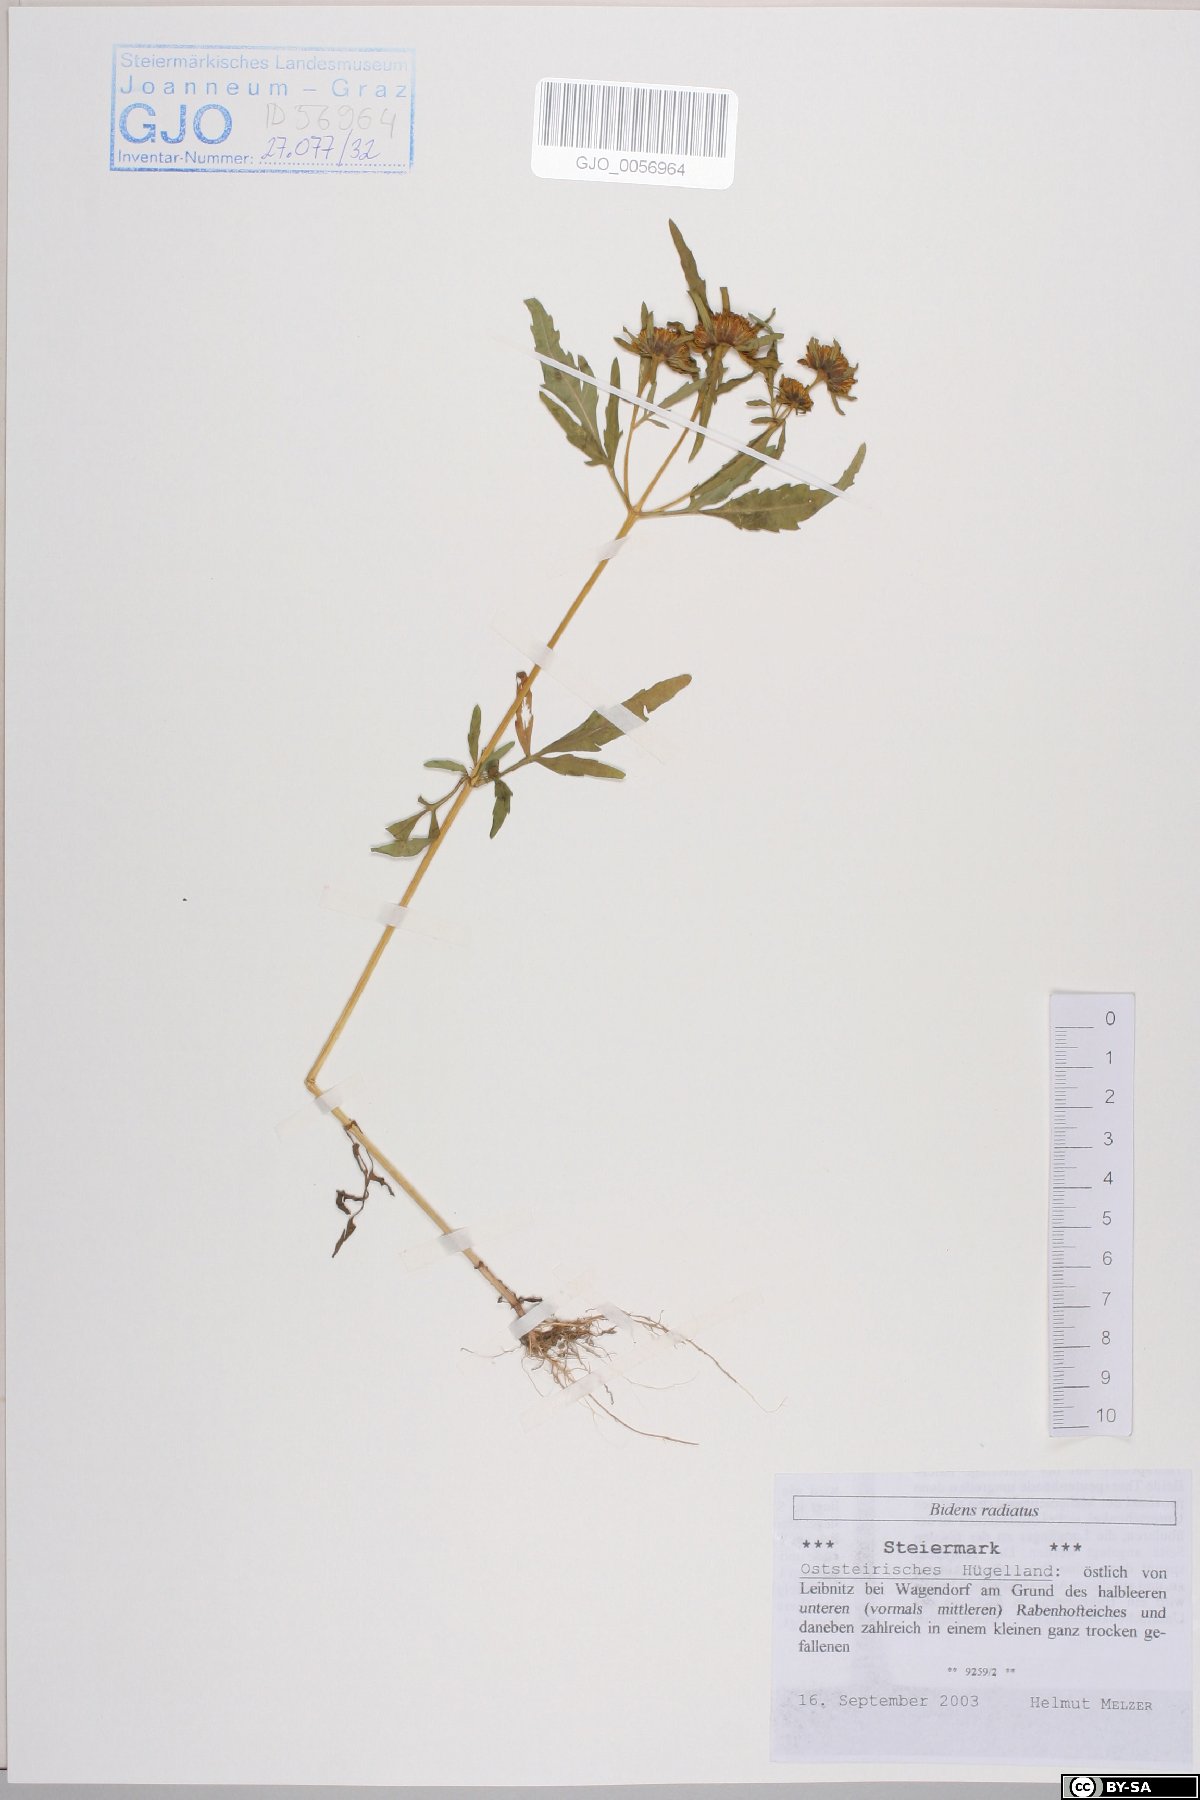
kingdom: Plantae
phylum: Tracheophyta
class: Magnoliopsida
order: Asterales
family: Asteraceae
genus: Bidens
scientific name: Bidens radiata
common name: Radiating bur-marigold
